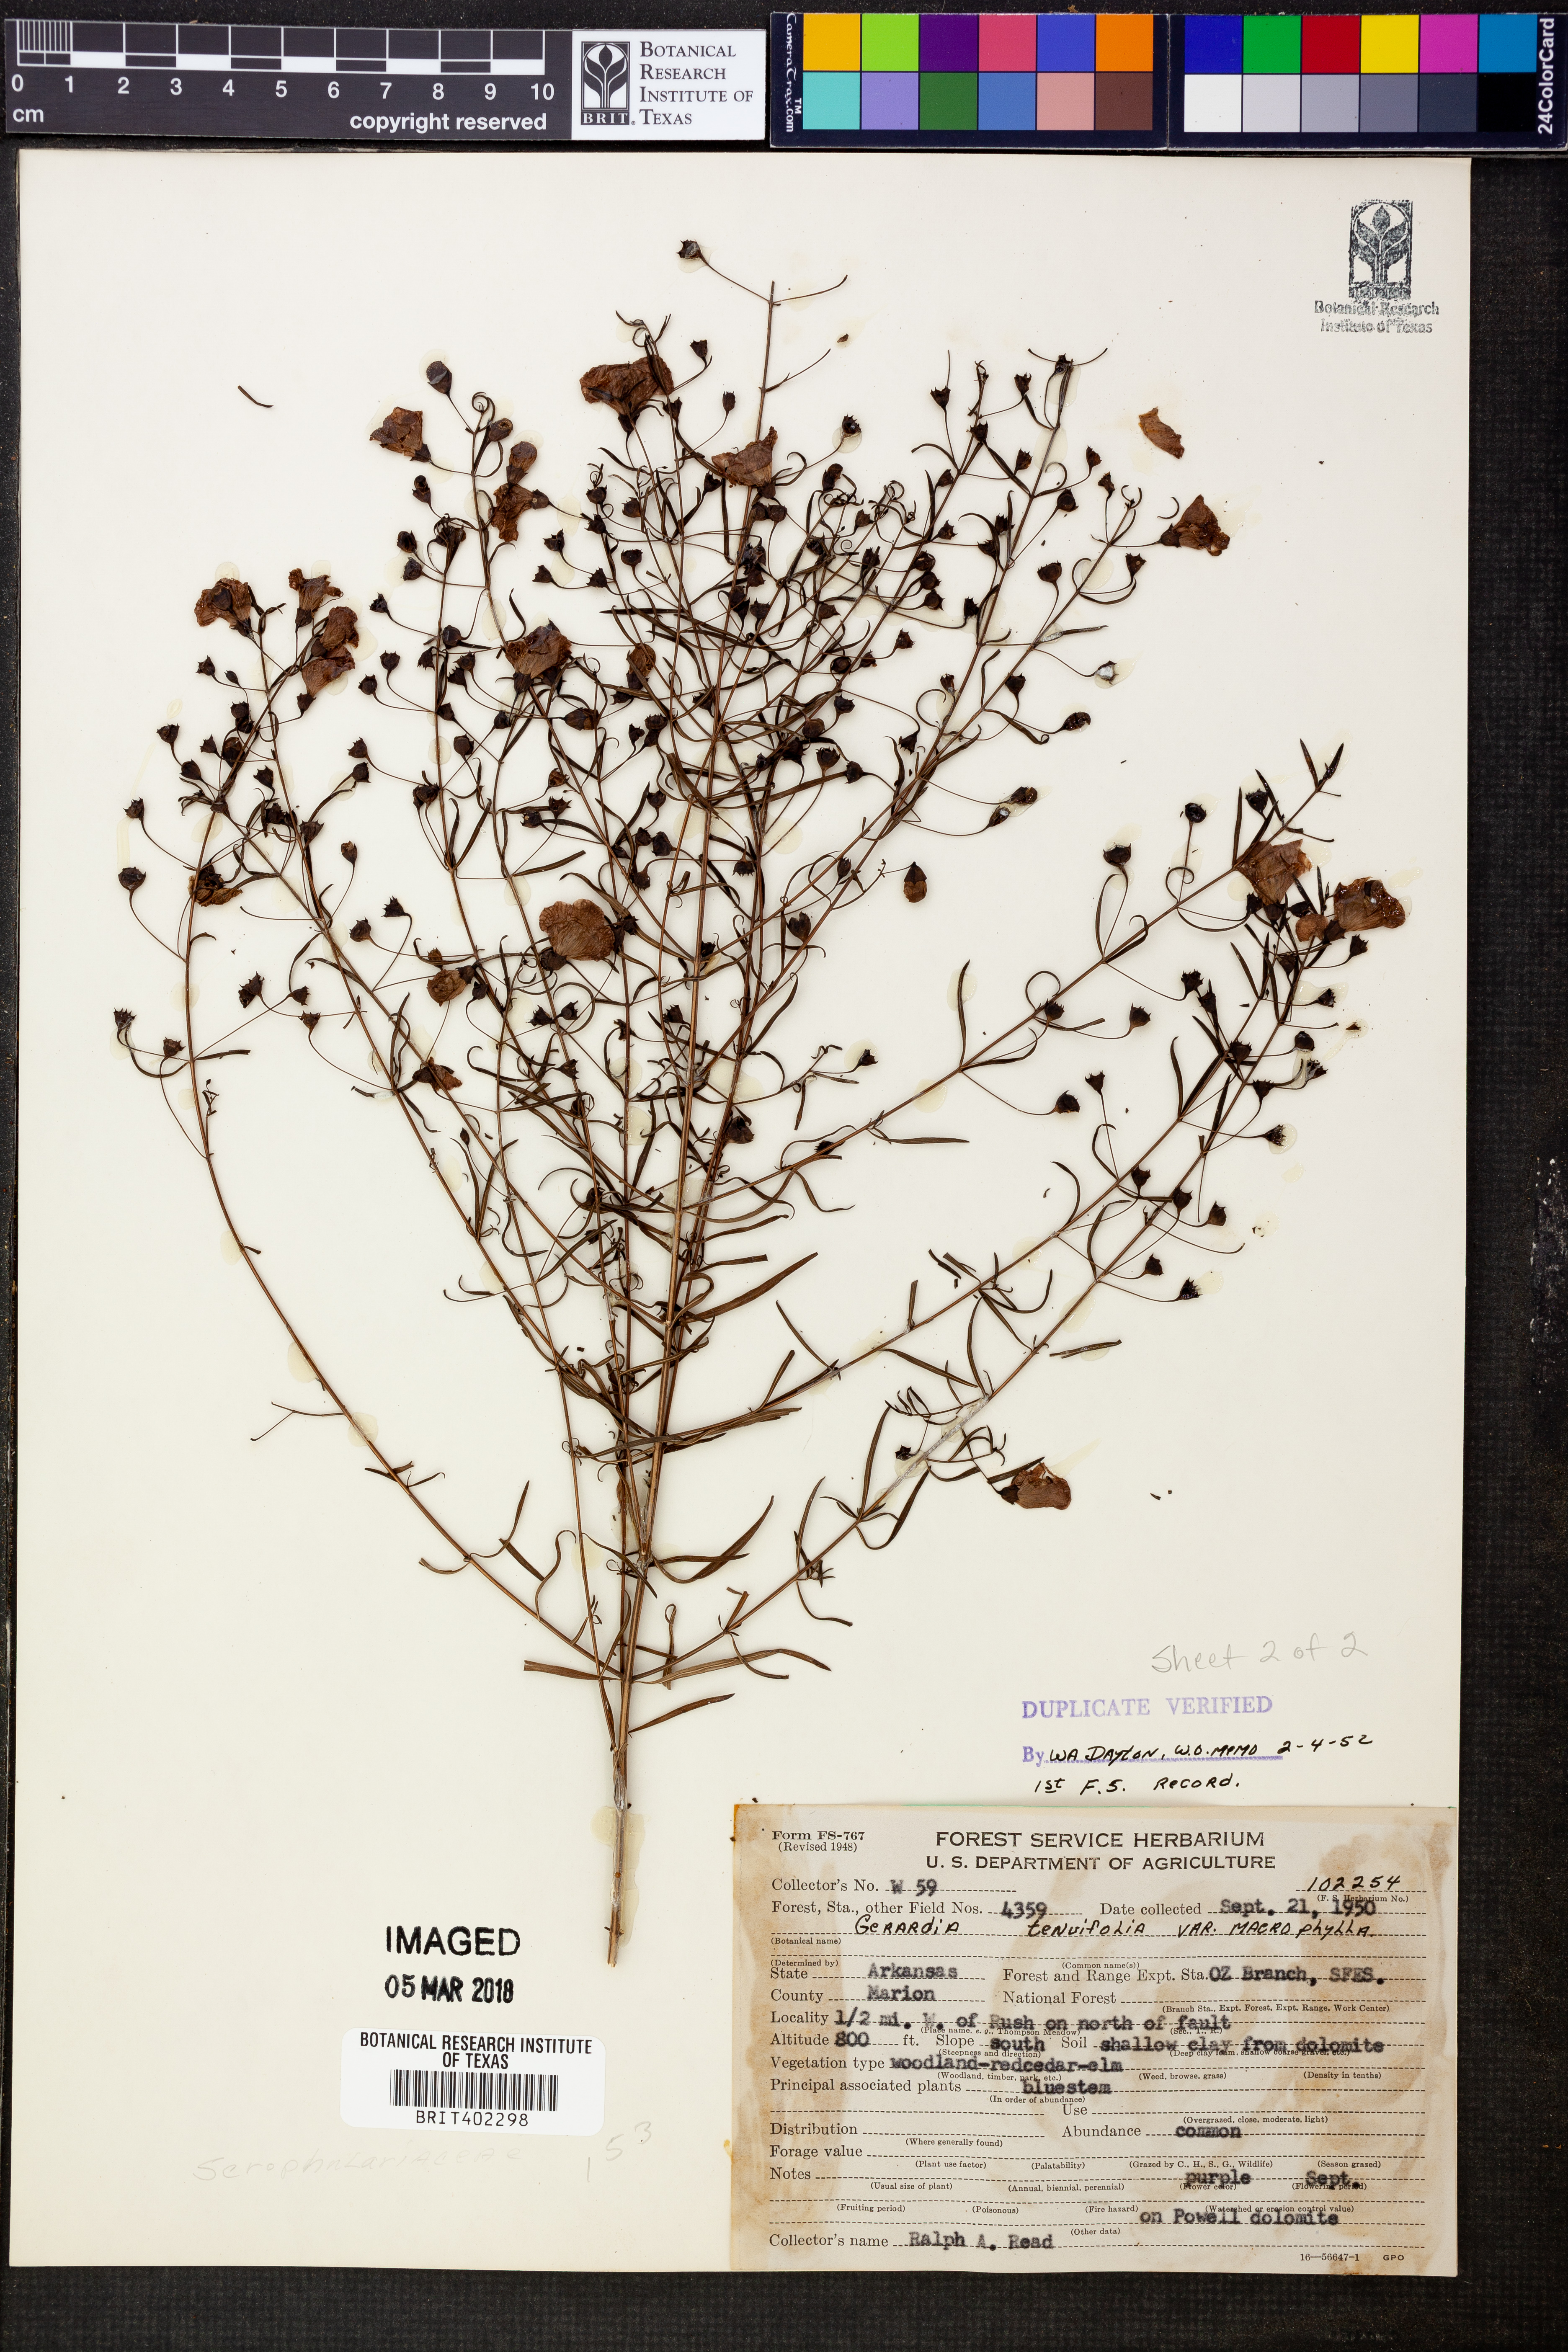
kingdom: Plantae
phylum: Tracheophyta
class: Magnoliopsida
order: Lamiales
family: Orobanchaceae
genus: Agalinis
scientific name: Agalinis tenuifolia
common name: Slender agalinis
